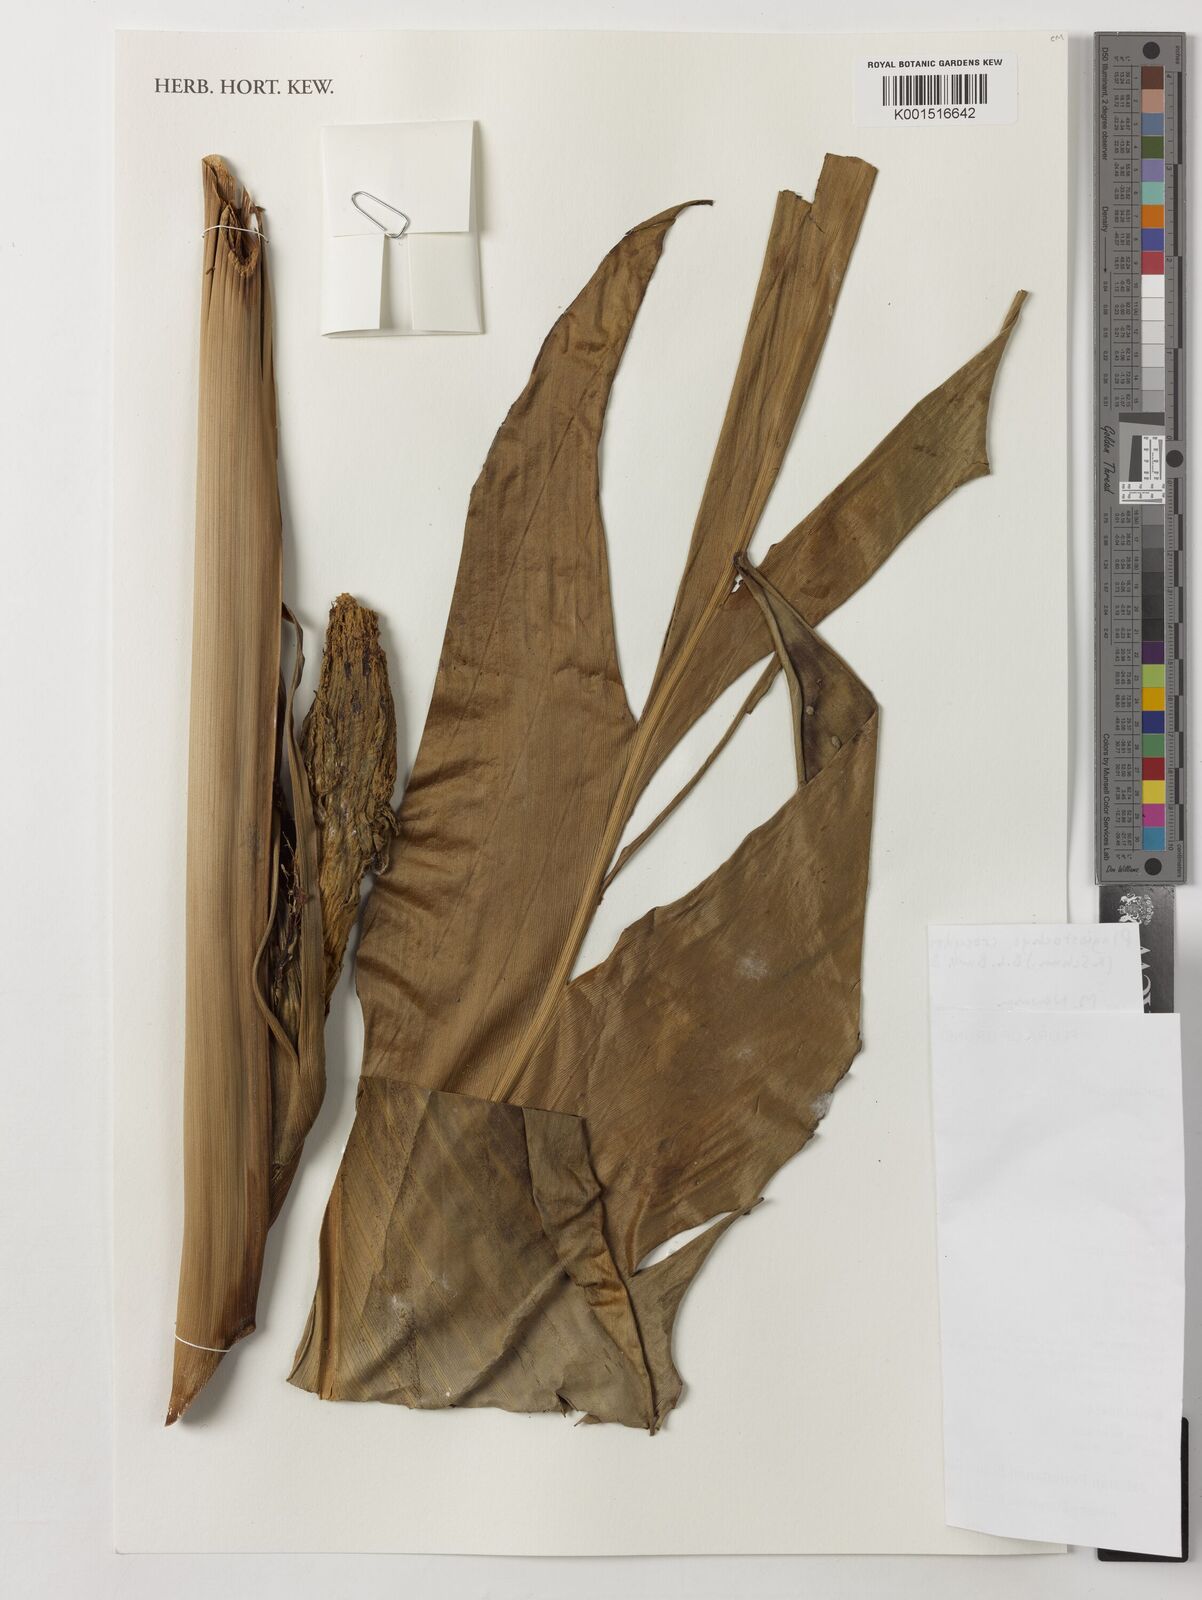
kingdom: Plantae
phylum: Tracheophyta
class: Liliopsida
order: Zingiberales
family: Zingiberaceae
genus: Plagiostachys
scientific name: Plagiostachys crocydocalyx
